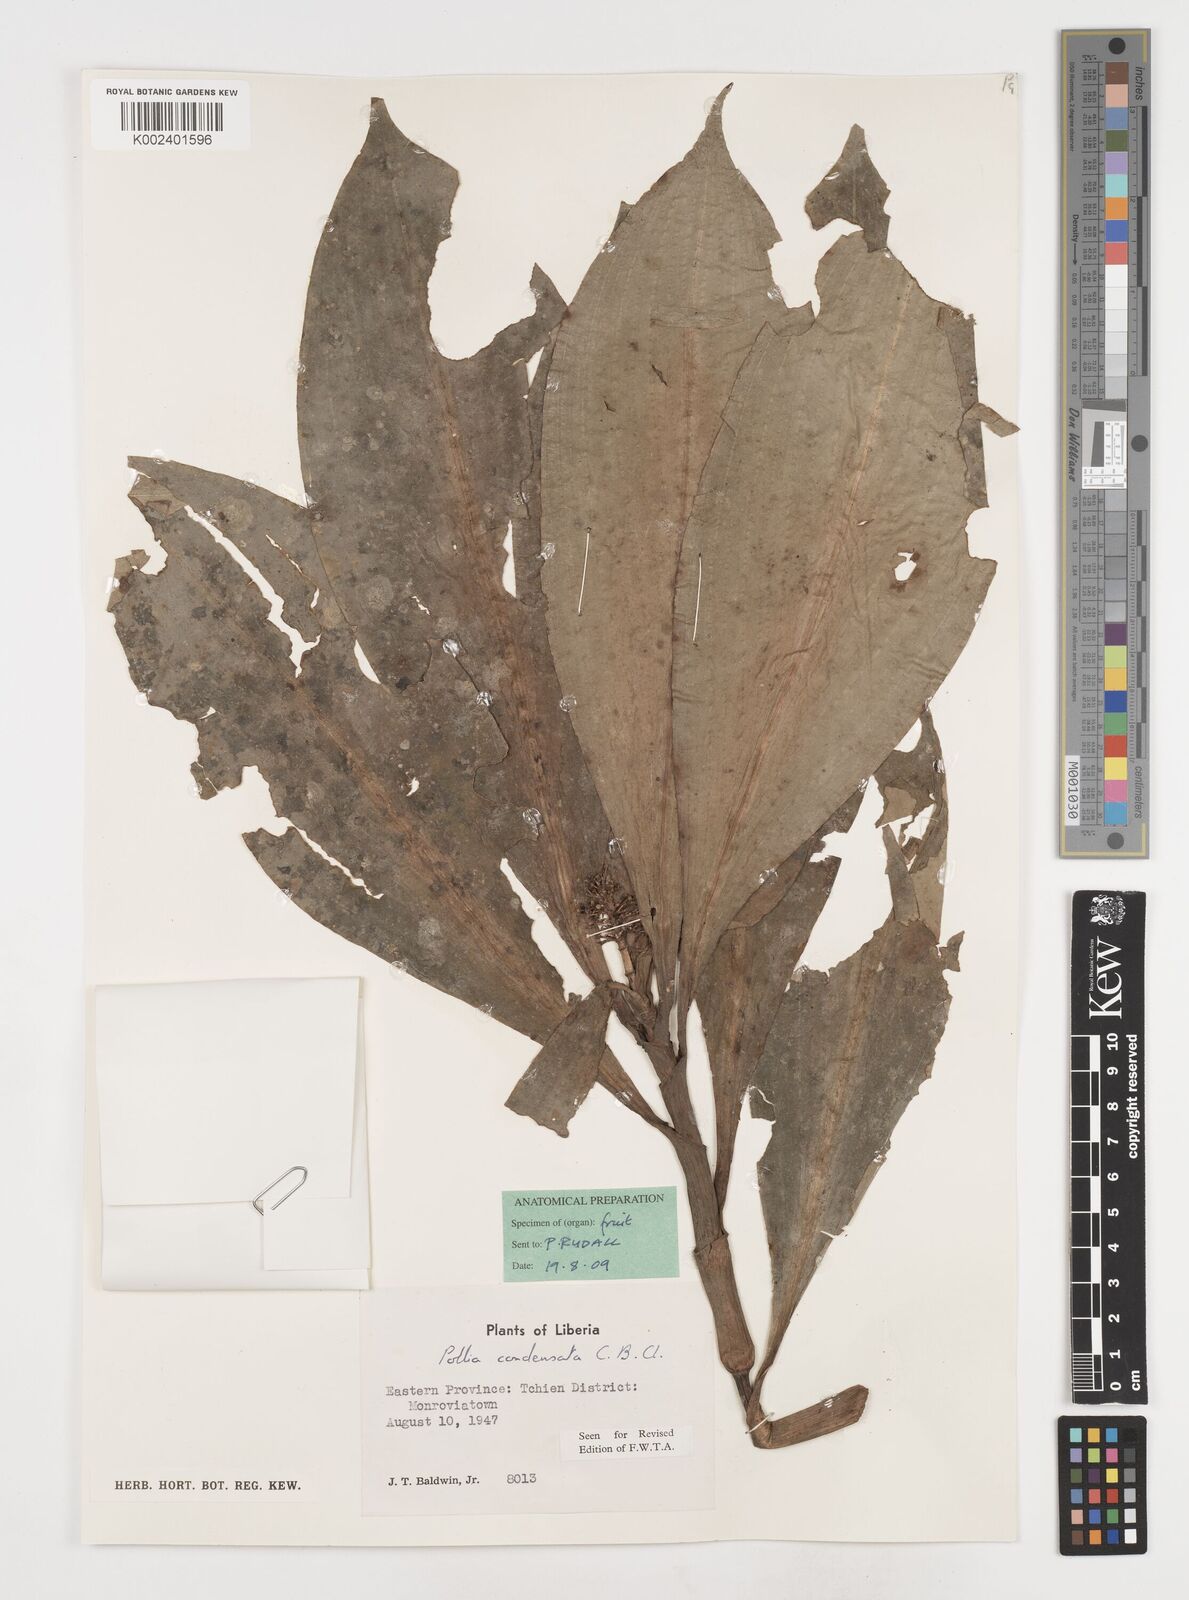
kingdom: Plantae
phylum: Tracheophyta
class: Liliopsida
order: Commelinales
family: Commelinaceae
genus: Pollia
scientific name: Pollia condensata
